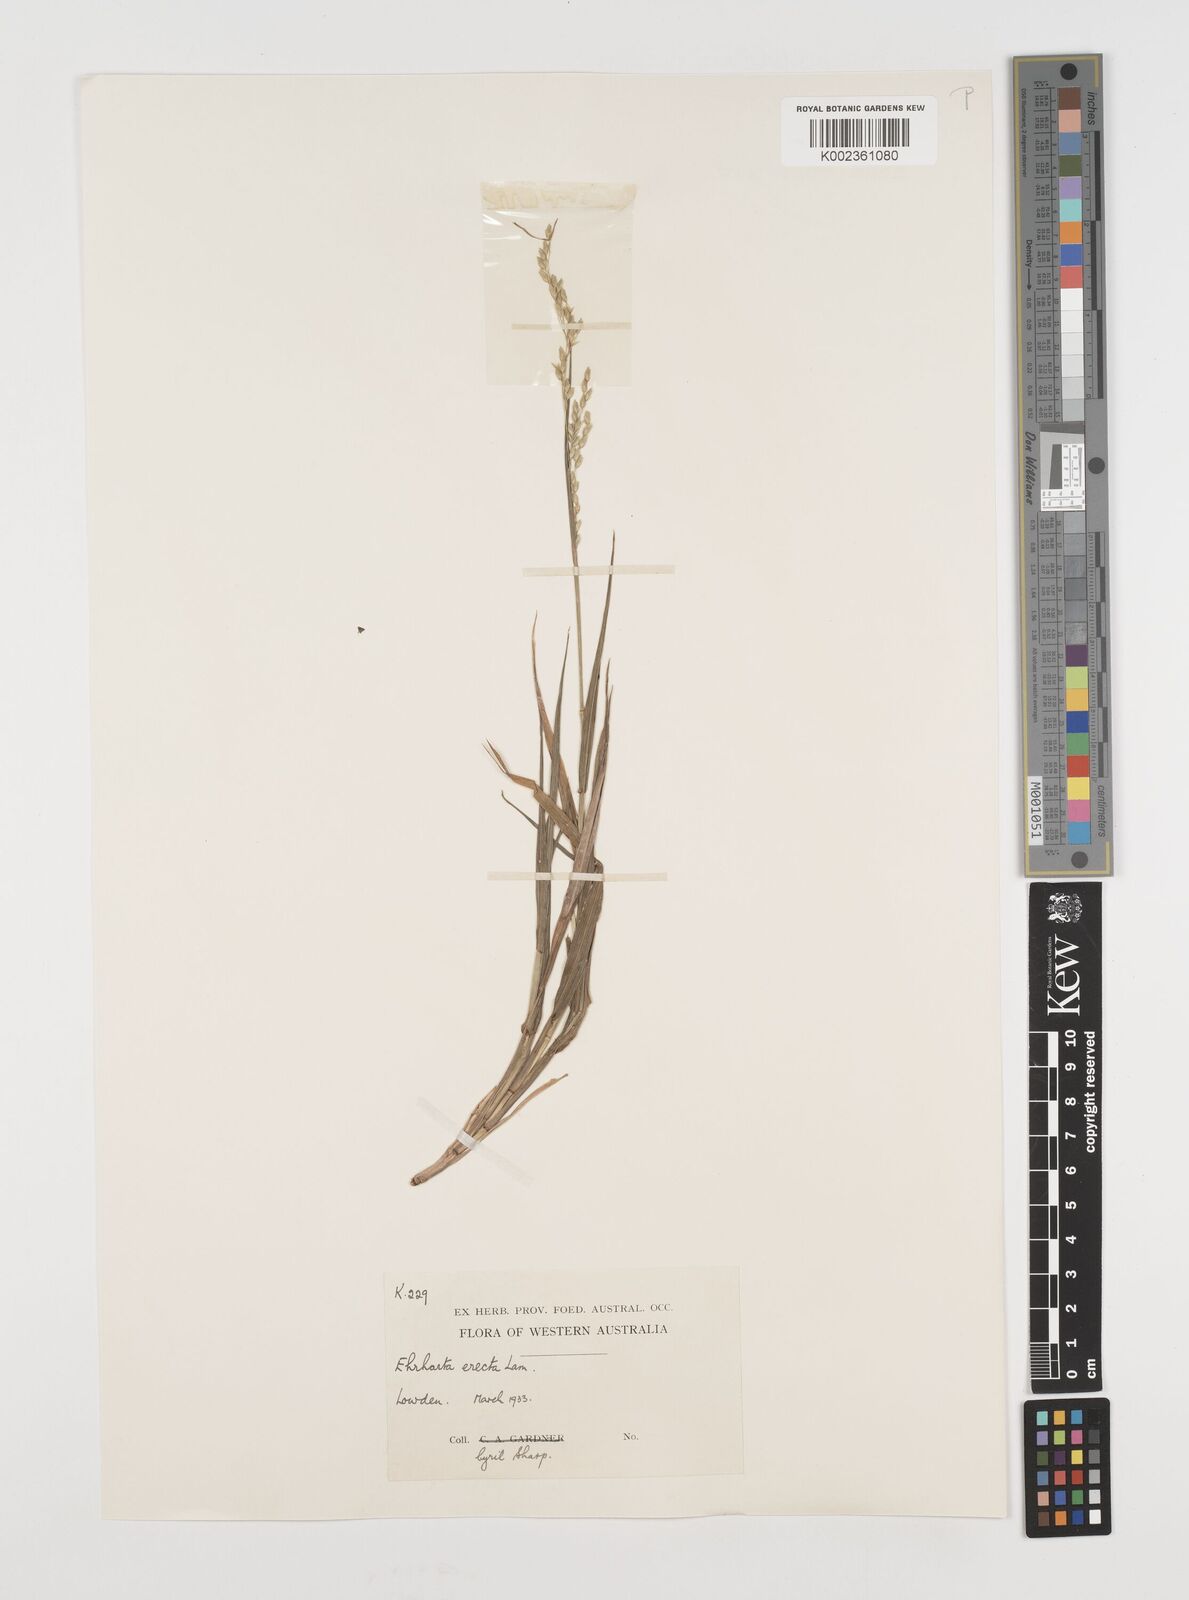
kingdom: Plantae
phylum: Tracheophyta
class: Liliopsida
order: Poales
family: Poaceae
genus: Ehrharta
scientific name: Ehrharta erecta
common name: Panic veldtgrass
